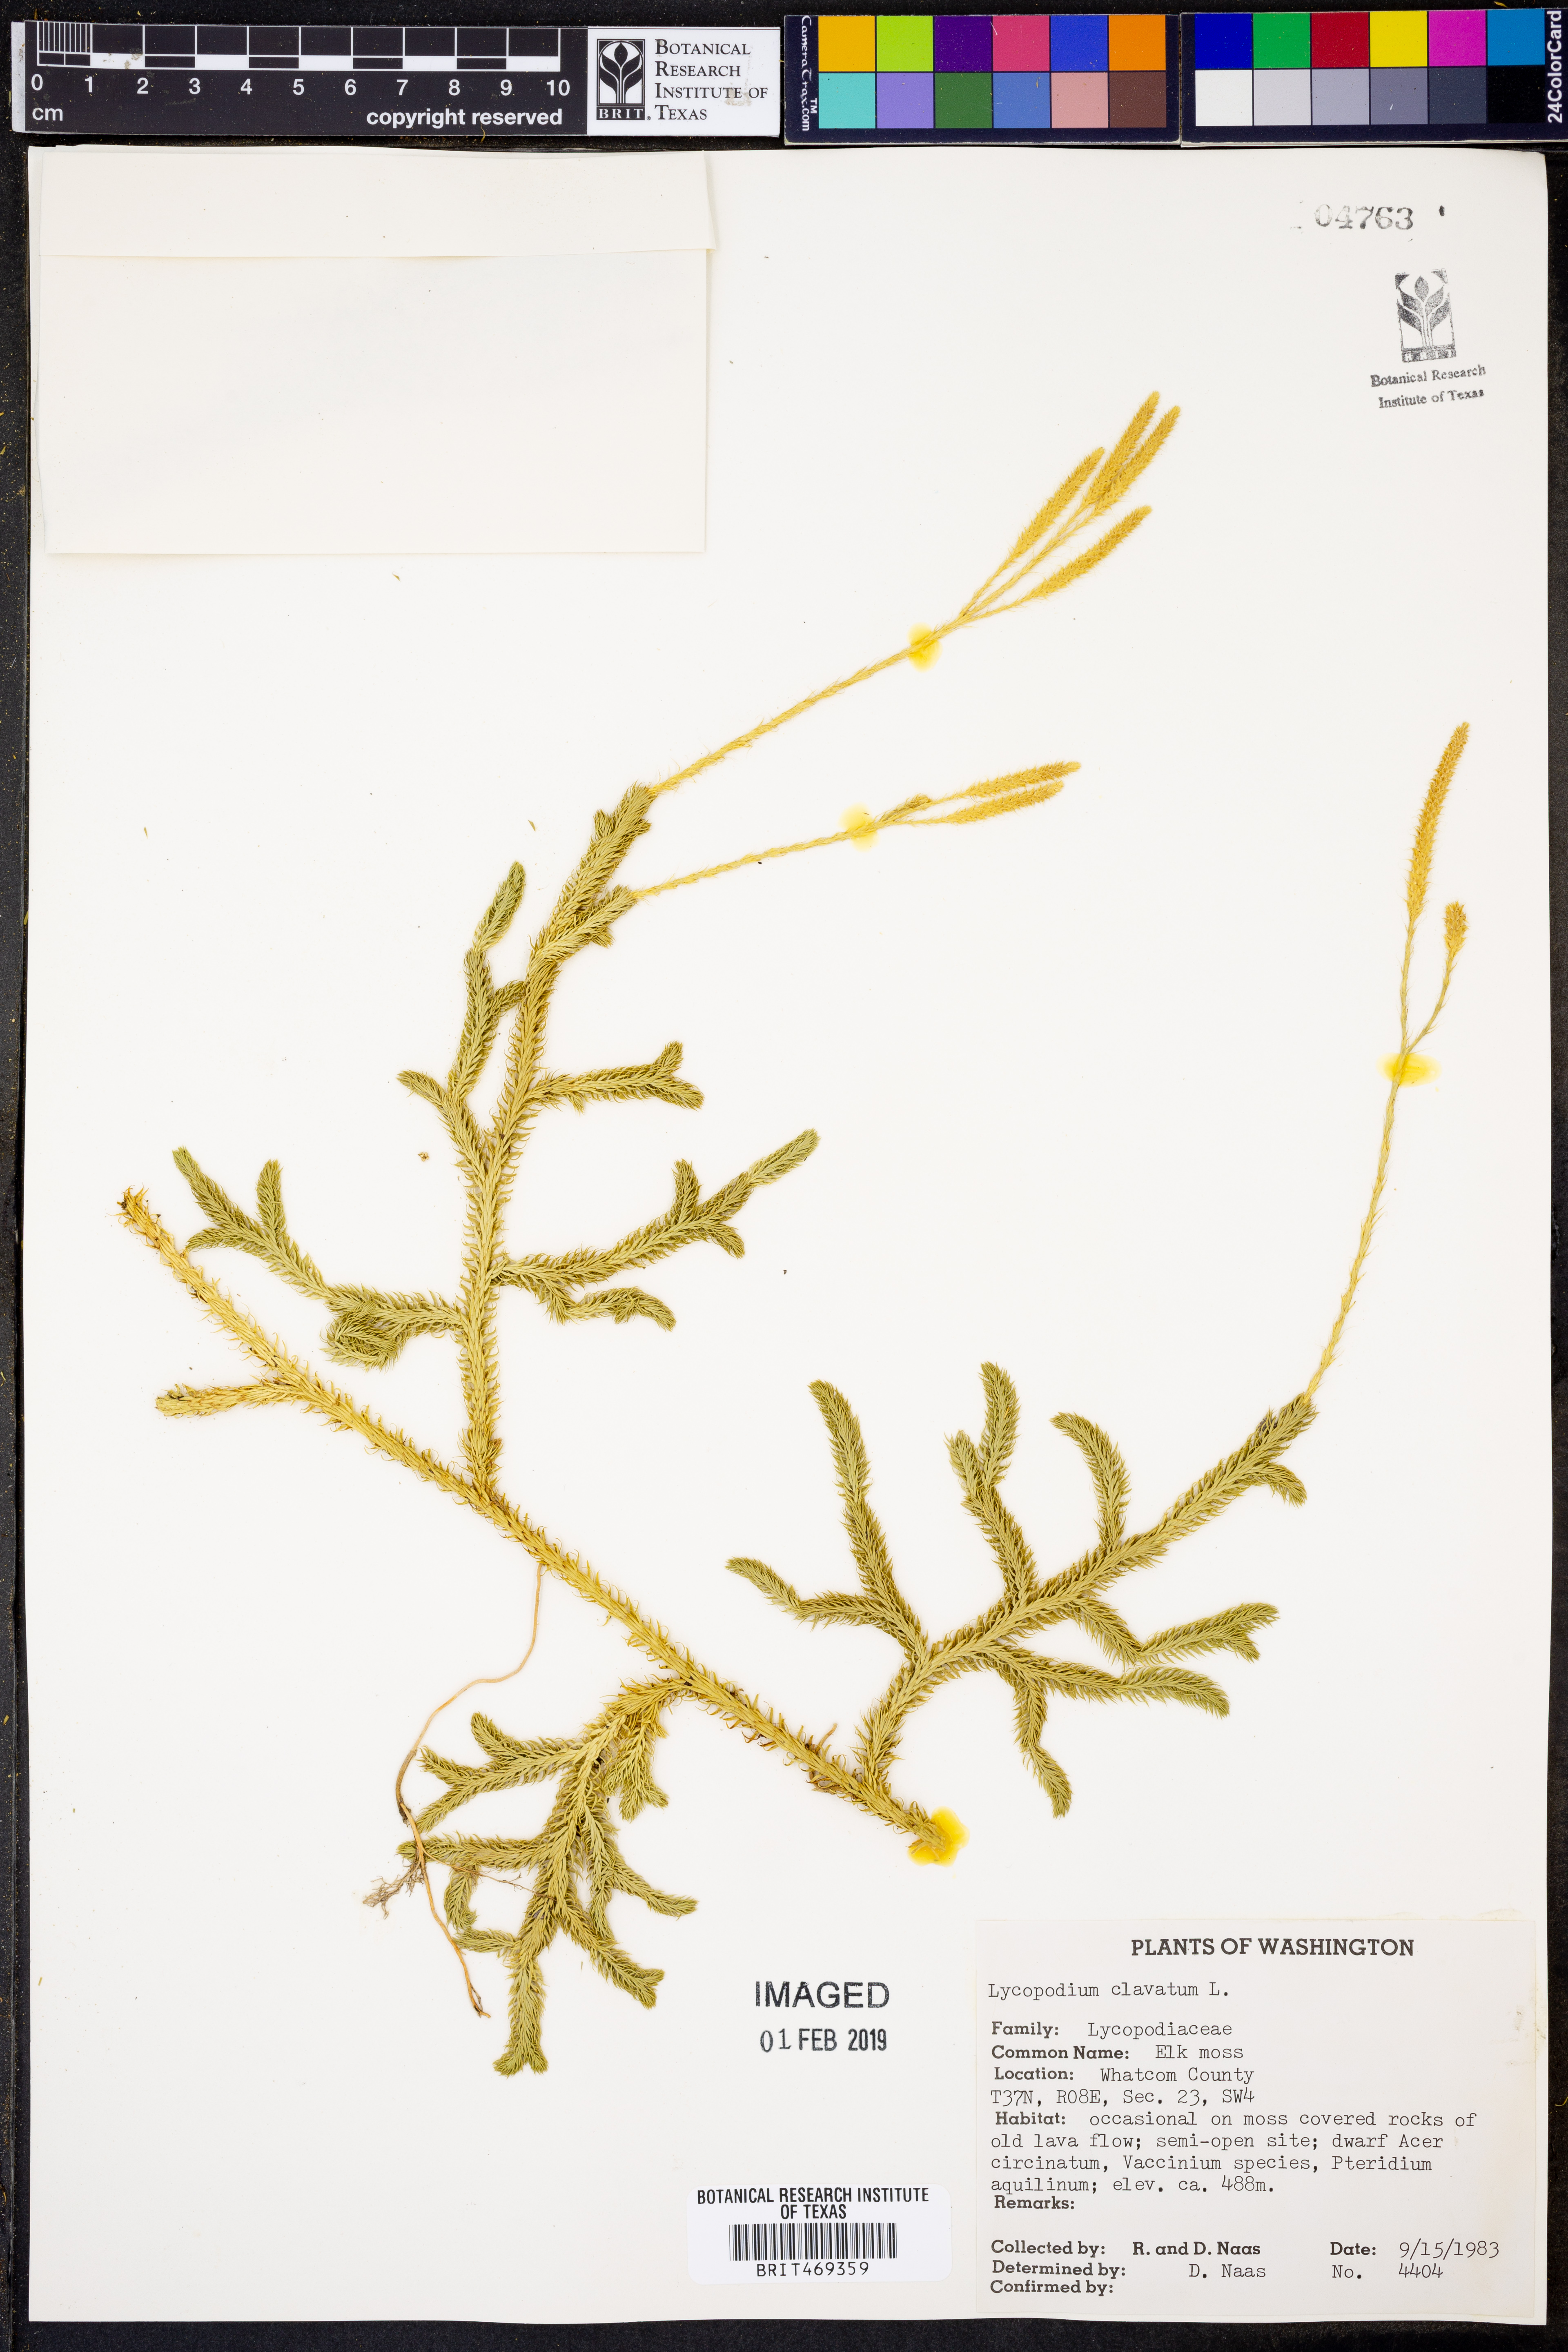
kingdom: Plantae
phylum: Tracheophyta
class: Lycopodiopsida
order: Lycopodiales
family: Lycopodiaceae
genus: Lycopodium
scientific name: Lycopodium clavatum
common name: Stag's-horn clubmoss
